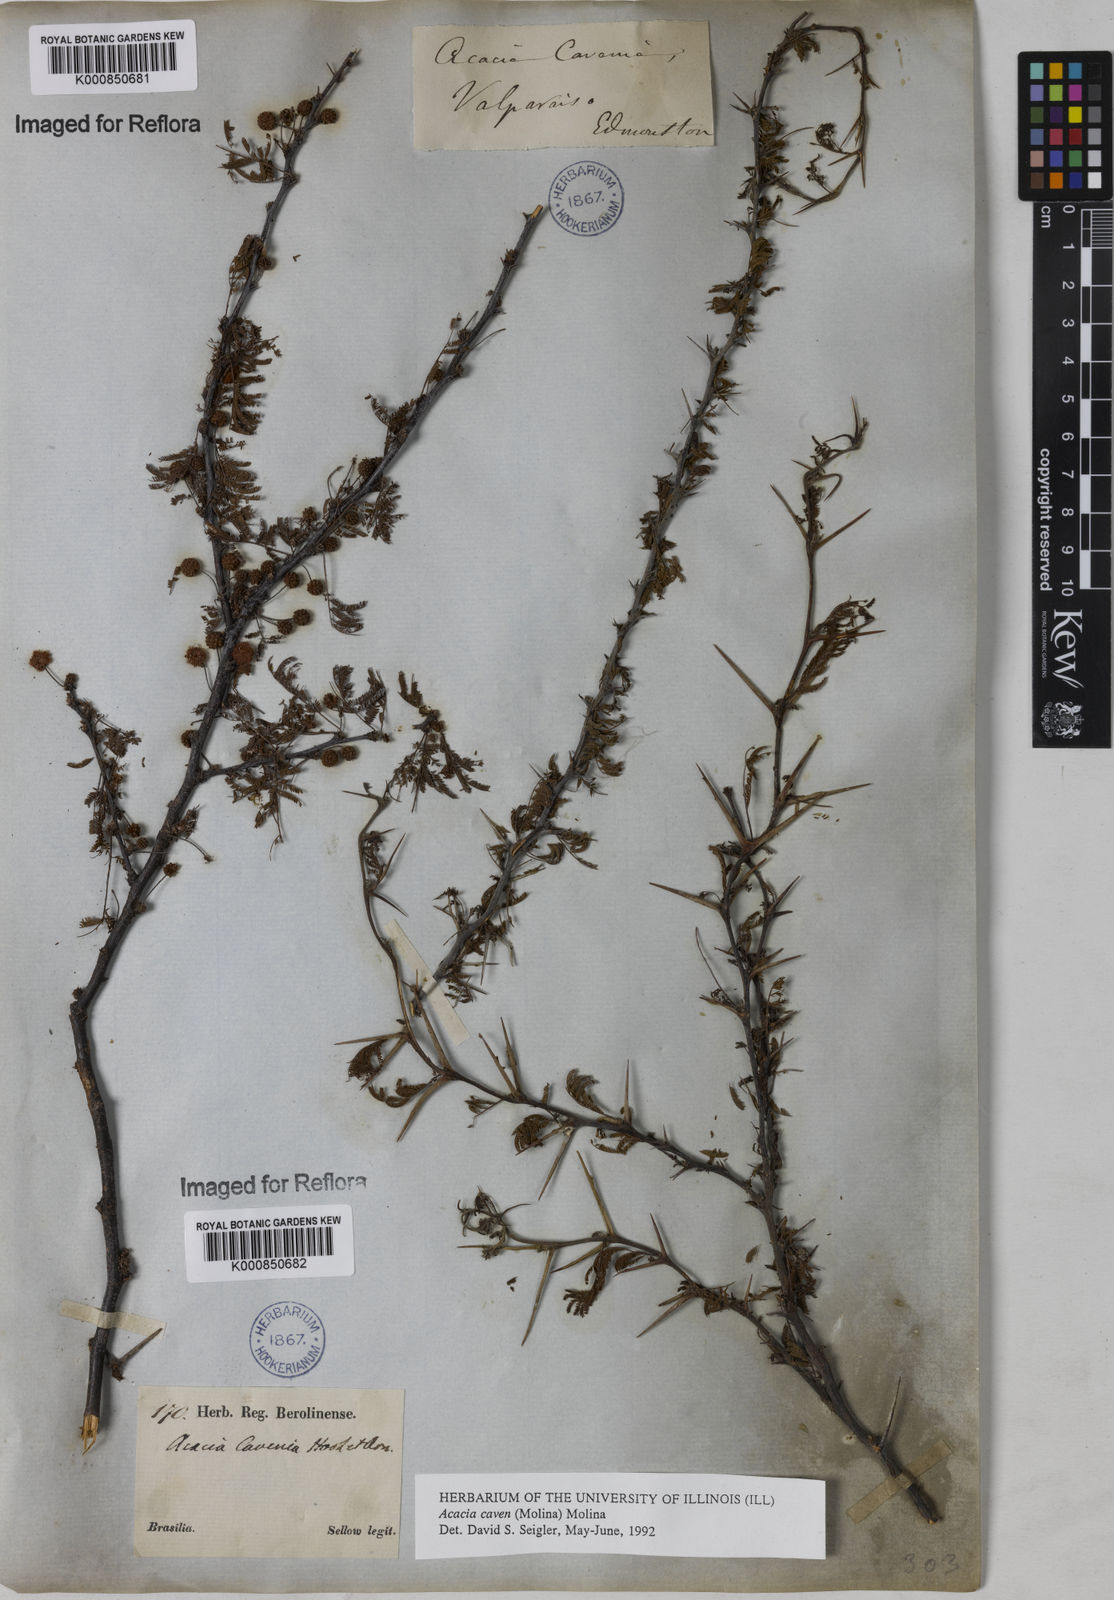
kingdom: Plantae
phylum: Tracheophyta
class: Magnoliopsida
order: Fabales
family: Fabaceae
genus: Vachellia
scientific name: Vachellia caven
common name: Roman cassie
